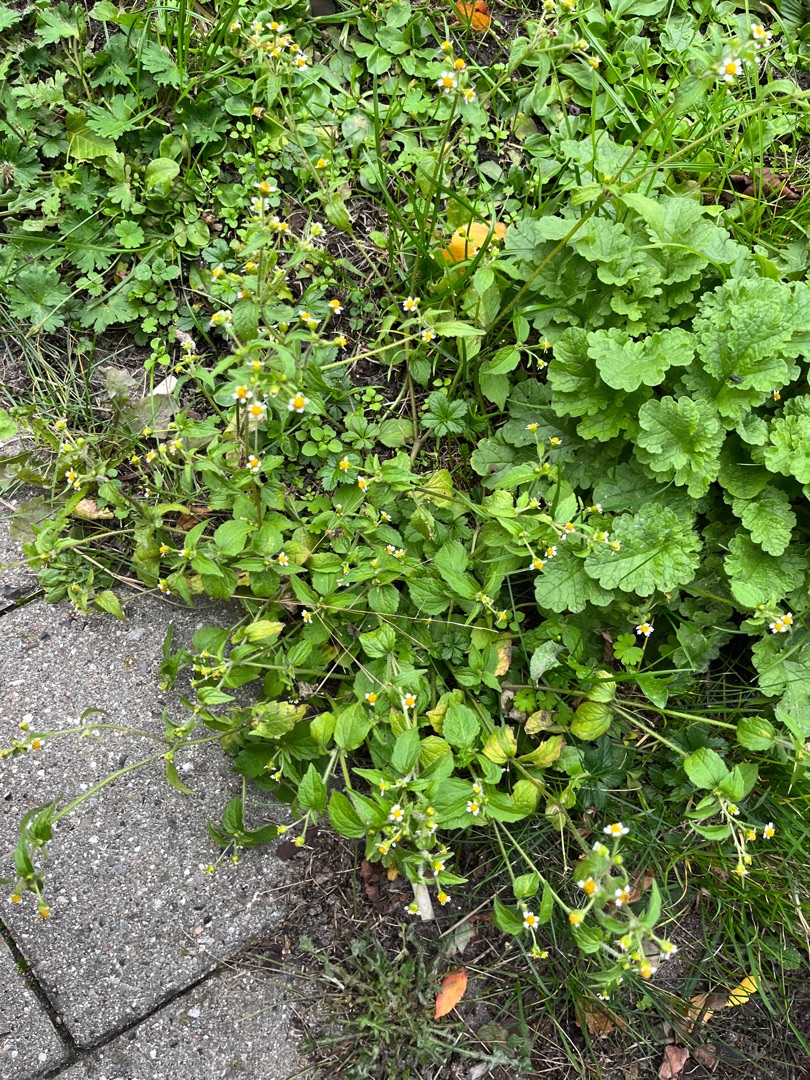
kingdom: Plantae
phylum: Tracheophyta
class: Magnoliopsida
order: Asterales
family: Asteraceae
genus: Galinsoga
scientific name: Galinsoga quadriradiata
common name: Kirtel-kortstråle
